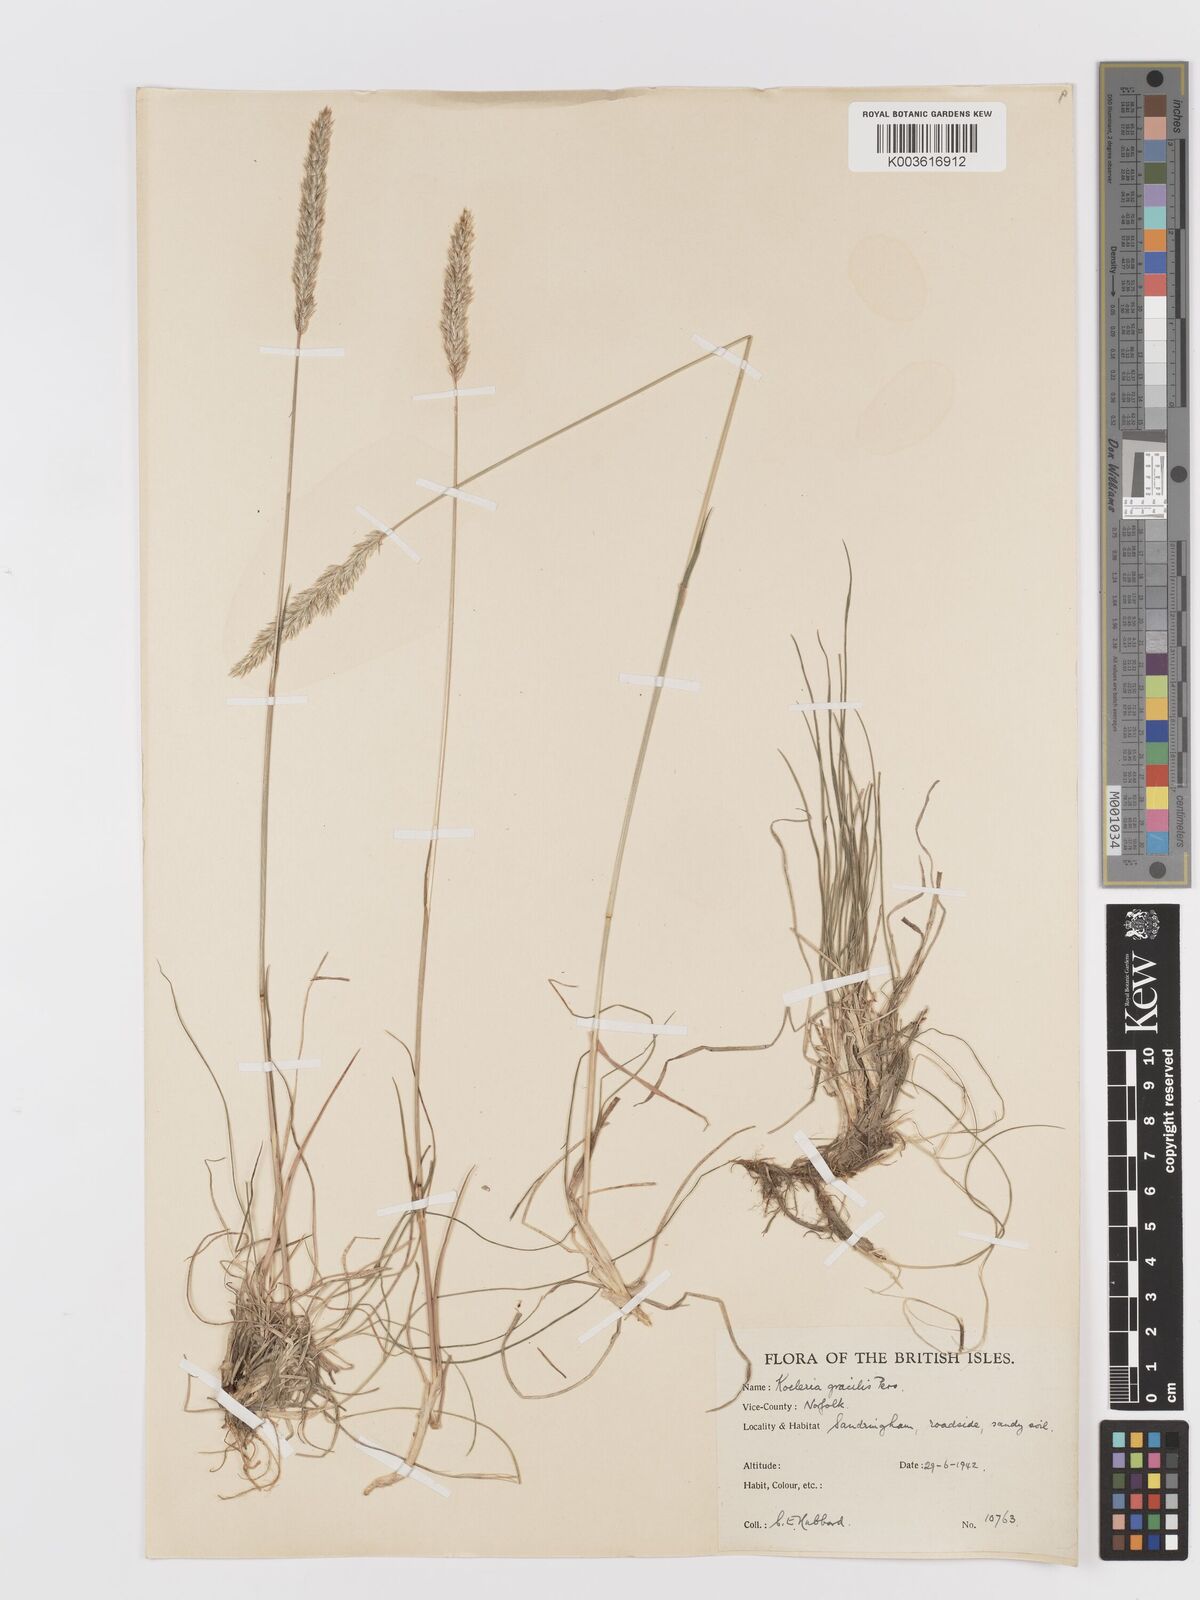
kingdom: Plantae
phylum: Tracheophyta
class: Liliopsida
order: Poales
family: Poaceae
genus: Koeleria
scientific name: Koeleria macrantha
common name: Crested hair-grass
